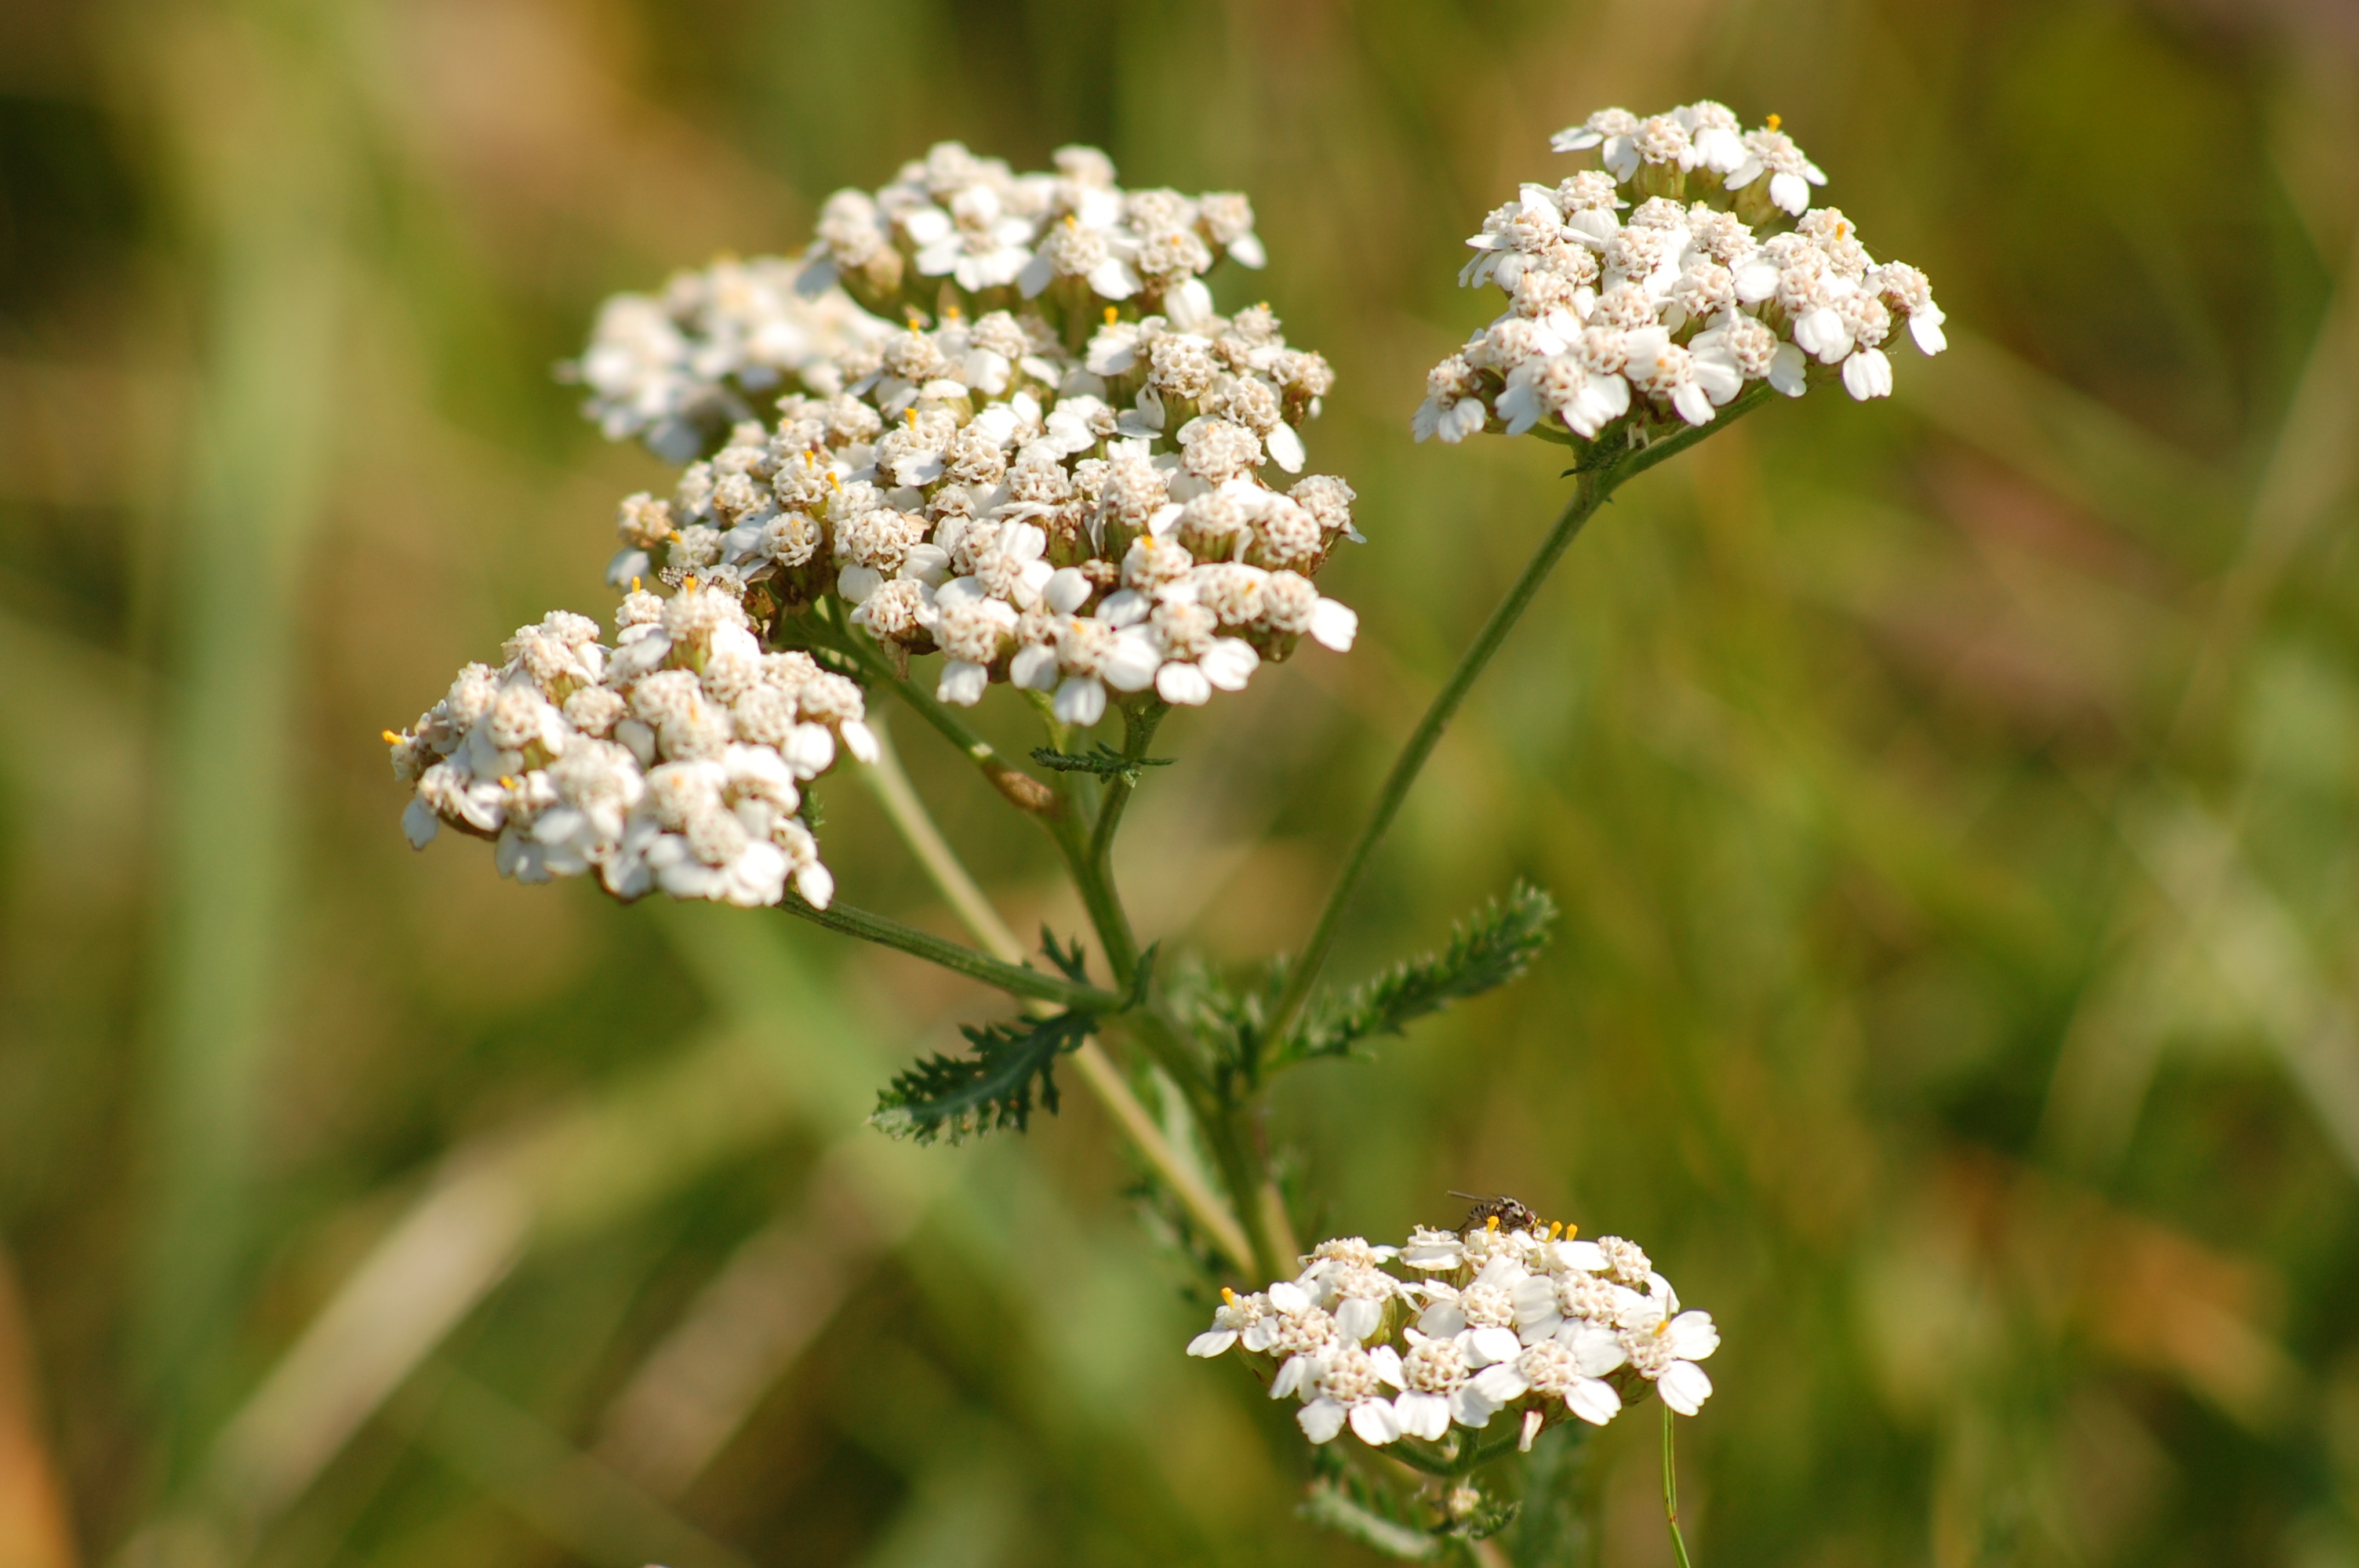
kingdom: Plantae
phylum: Tracheophyta
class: Magnoliopsida
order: Asterales
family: Asteraceae
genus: Achillea
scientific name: Achillea millefolium
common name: Yarrow
